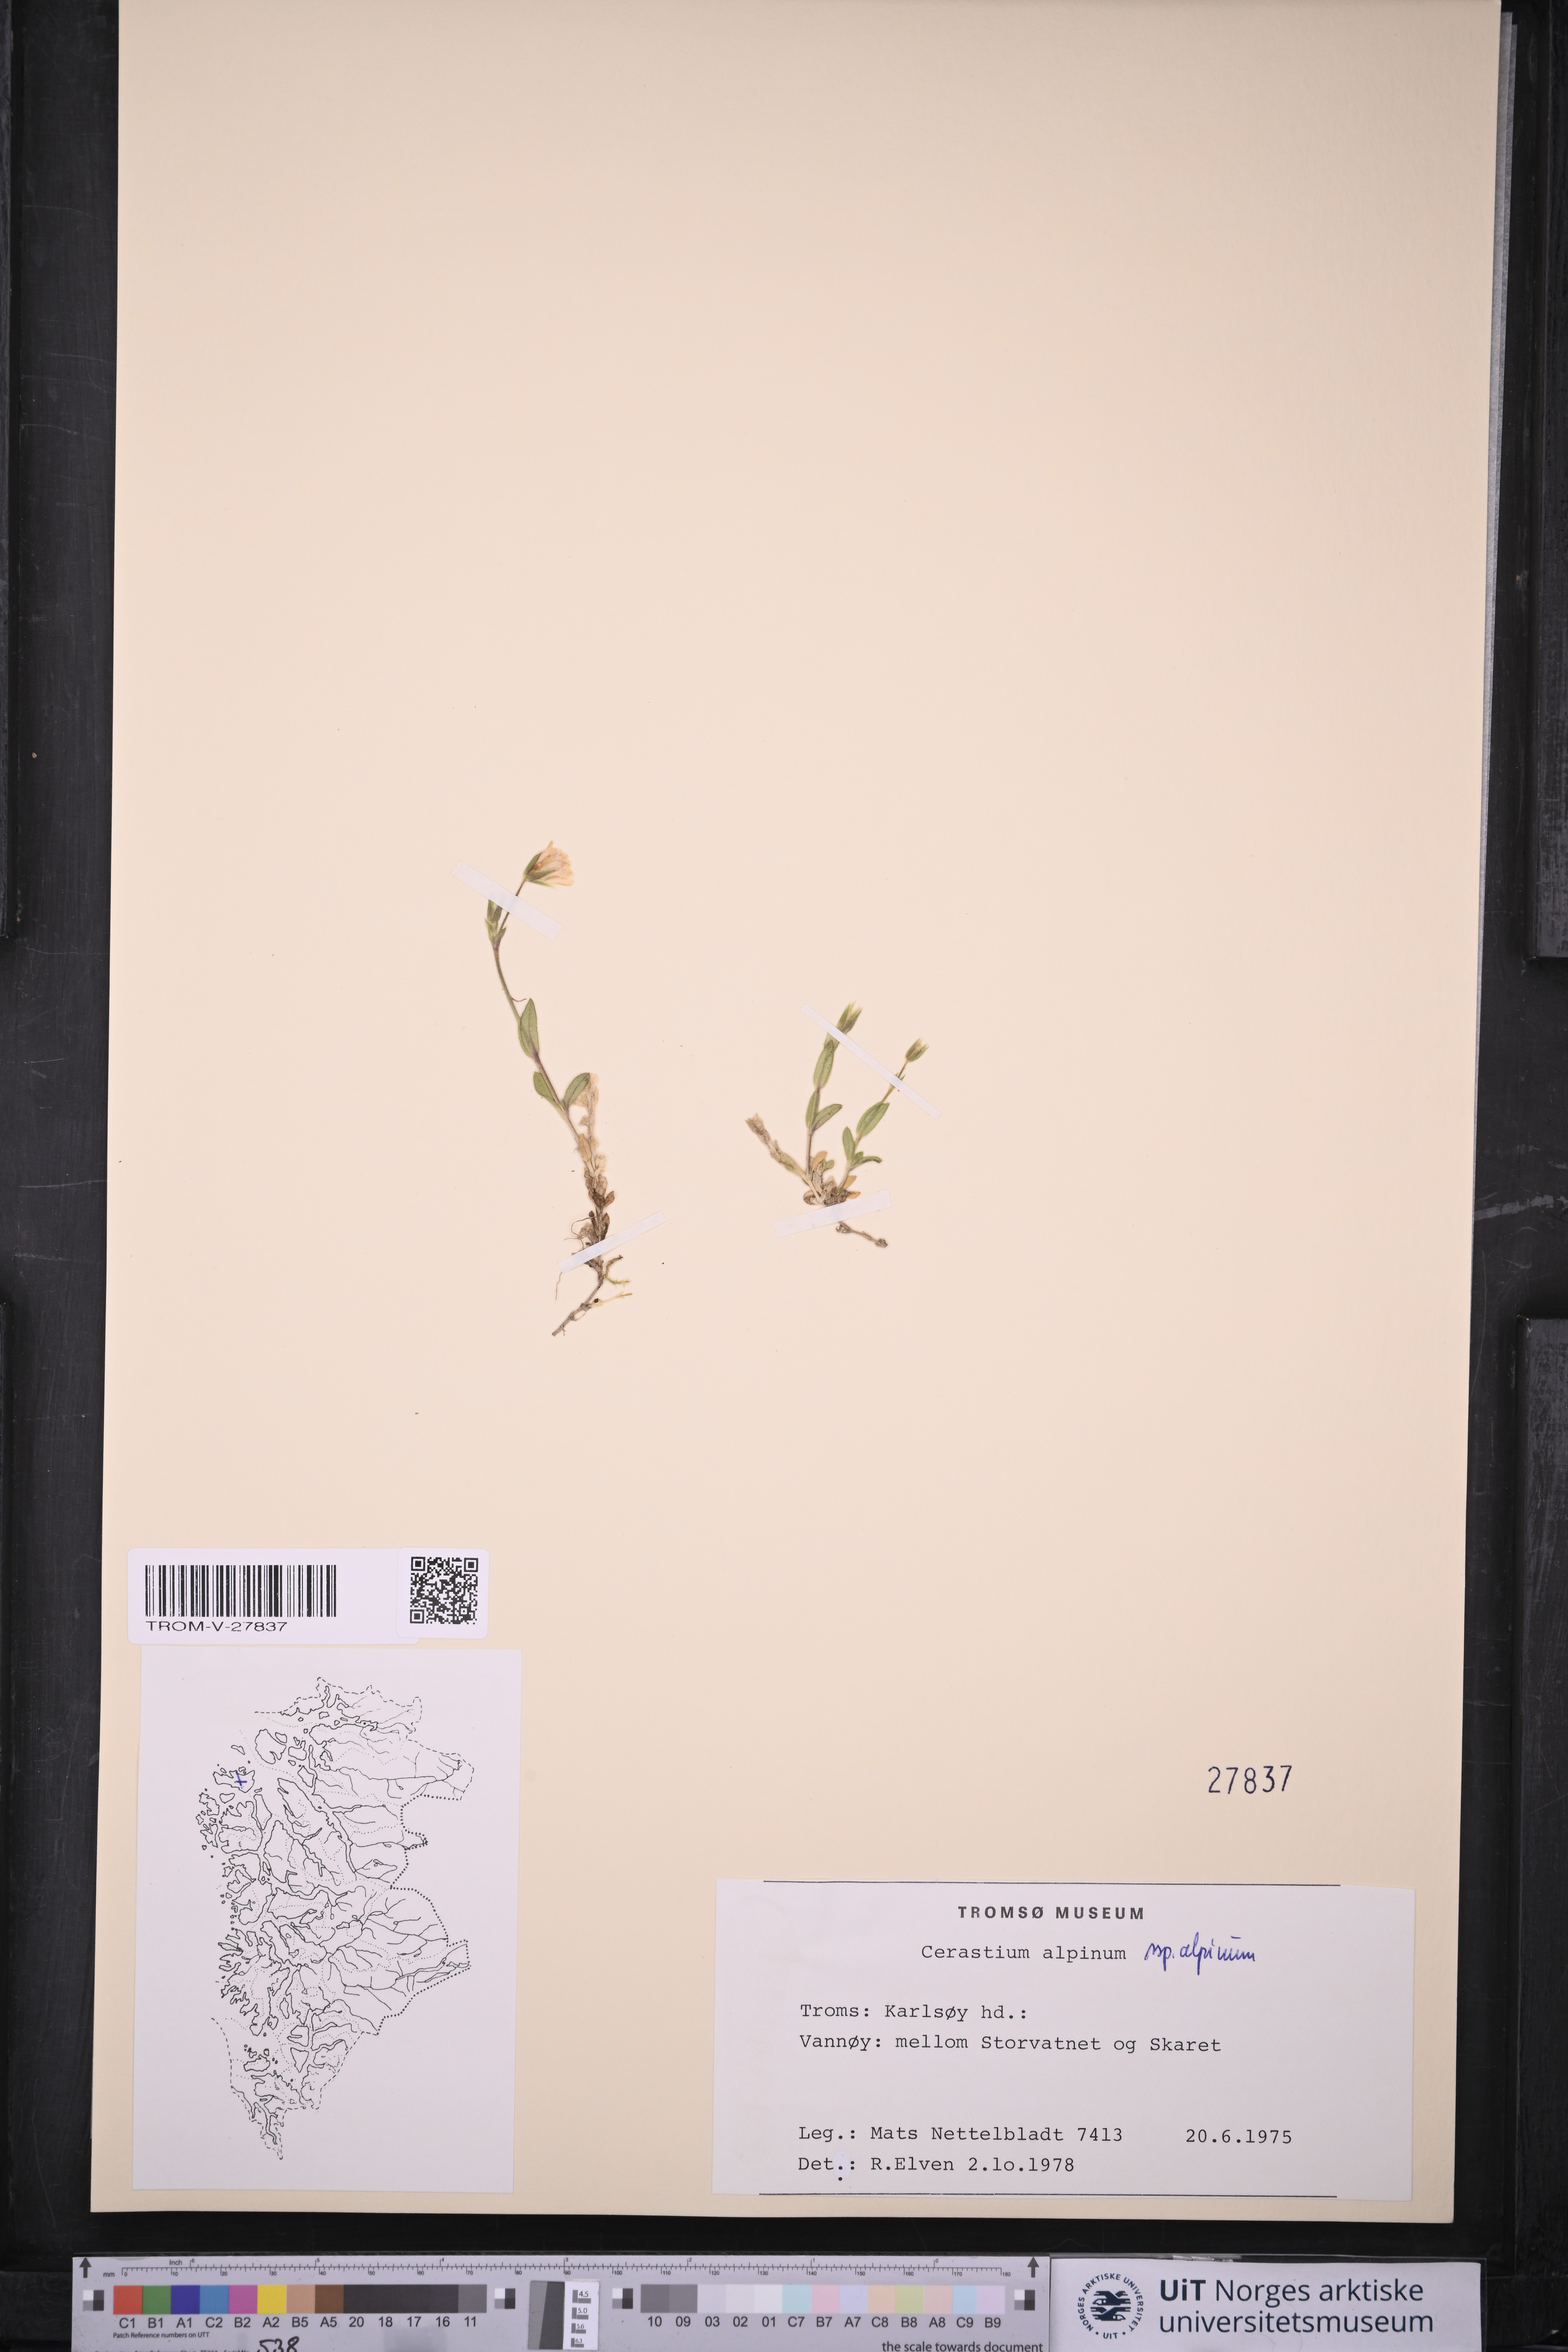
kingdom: Plantae
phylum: Tracheophyta
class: Magnoliopsida
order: Caryophyllales
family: Caryophyllaceae
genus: Cerastium
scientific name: Cerastium alpinum
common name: Alpine mouse-ear
